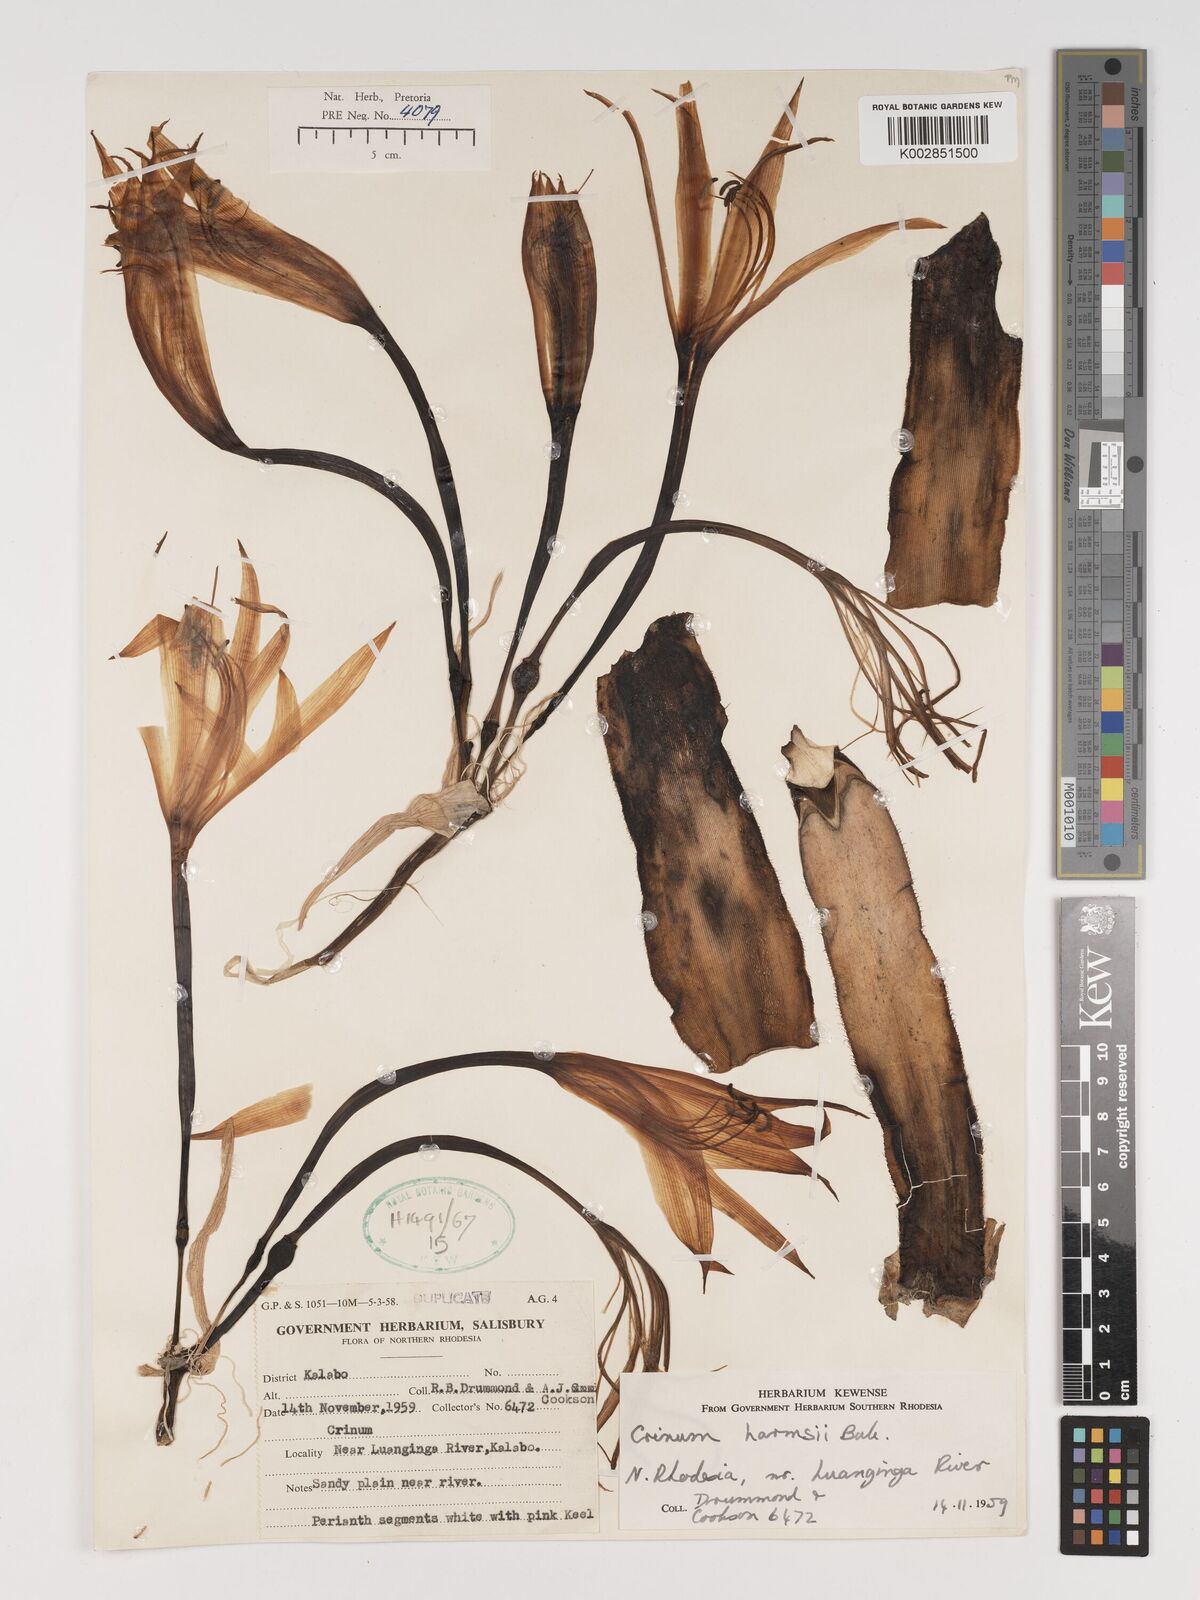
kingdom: Plantae
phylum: Tracheophyta
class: Liliopsida
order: Asparagales
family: Amaryllidaceae
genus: Crinum
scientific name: Crinum stuhlmannii
